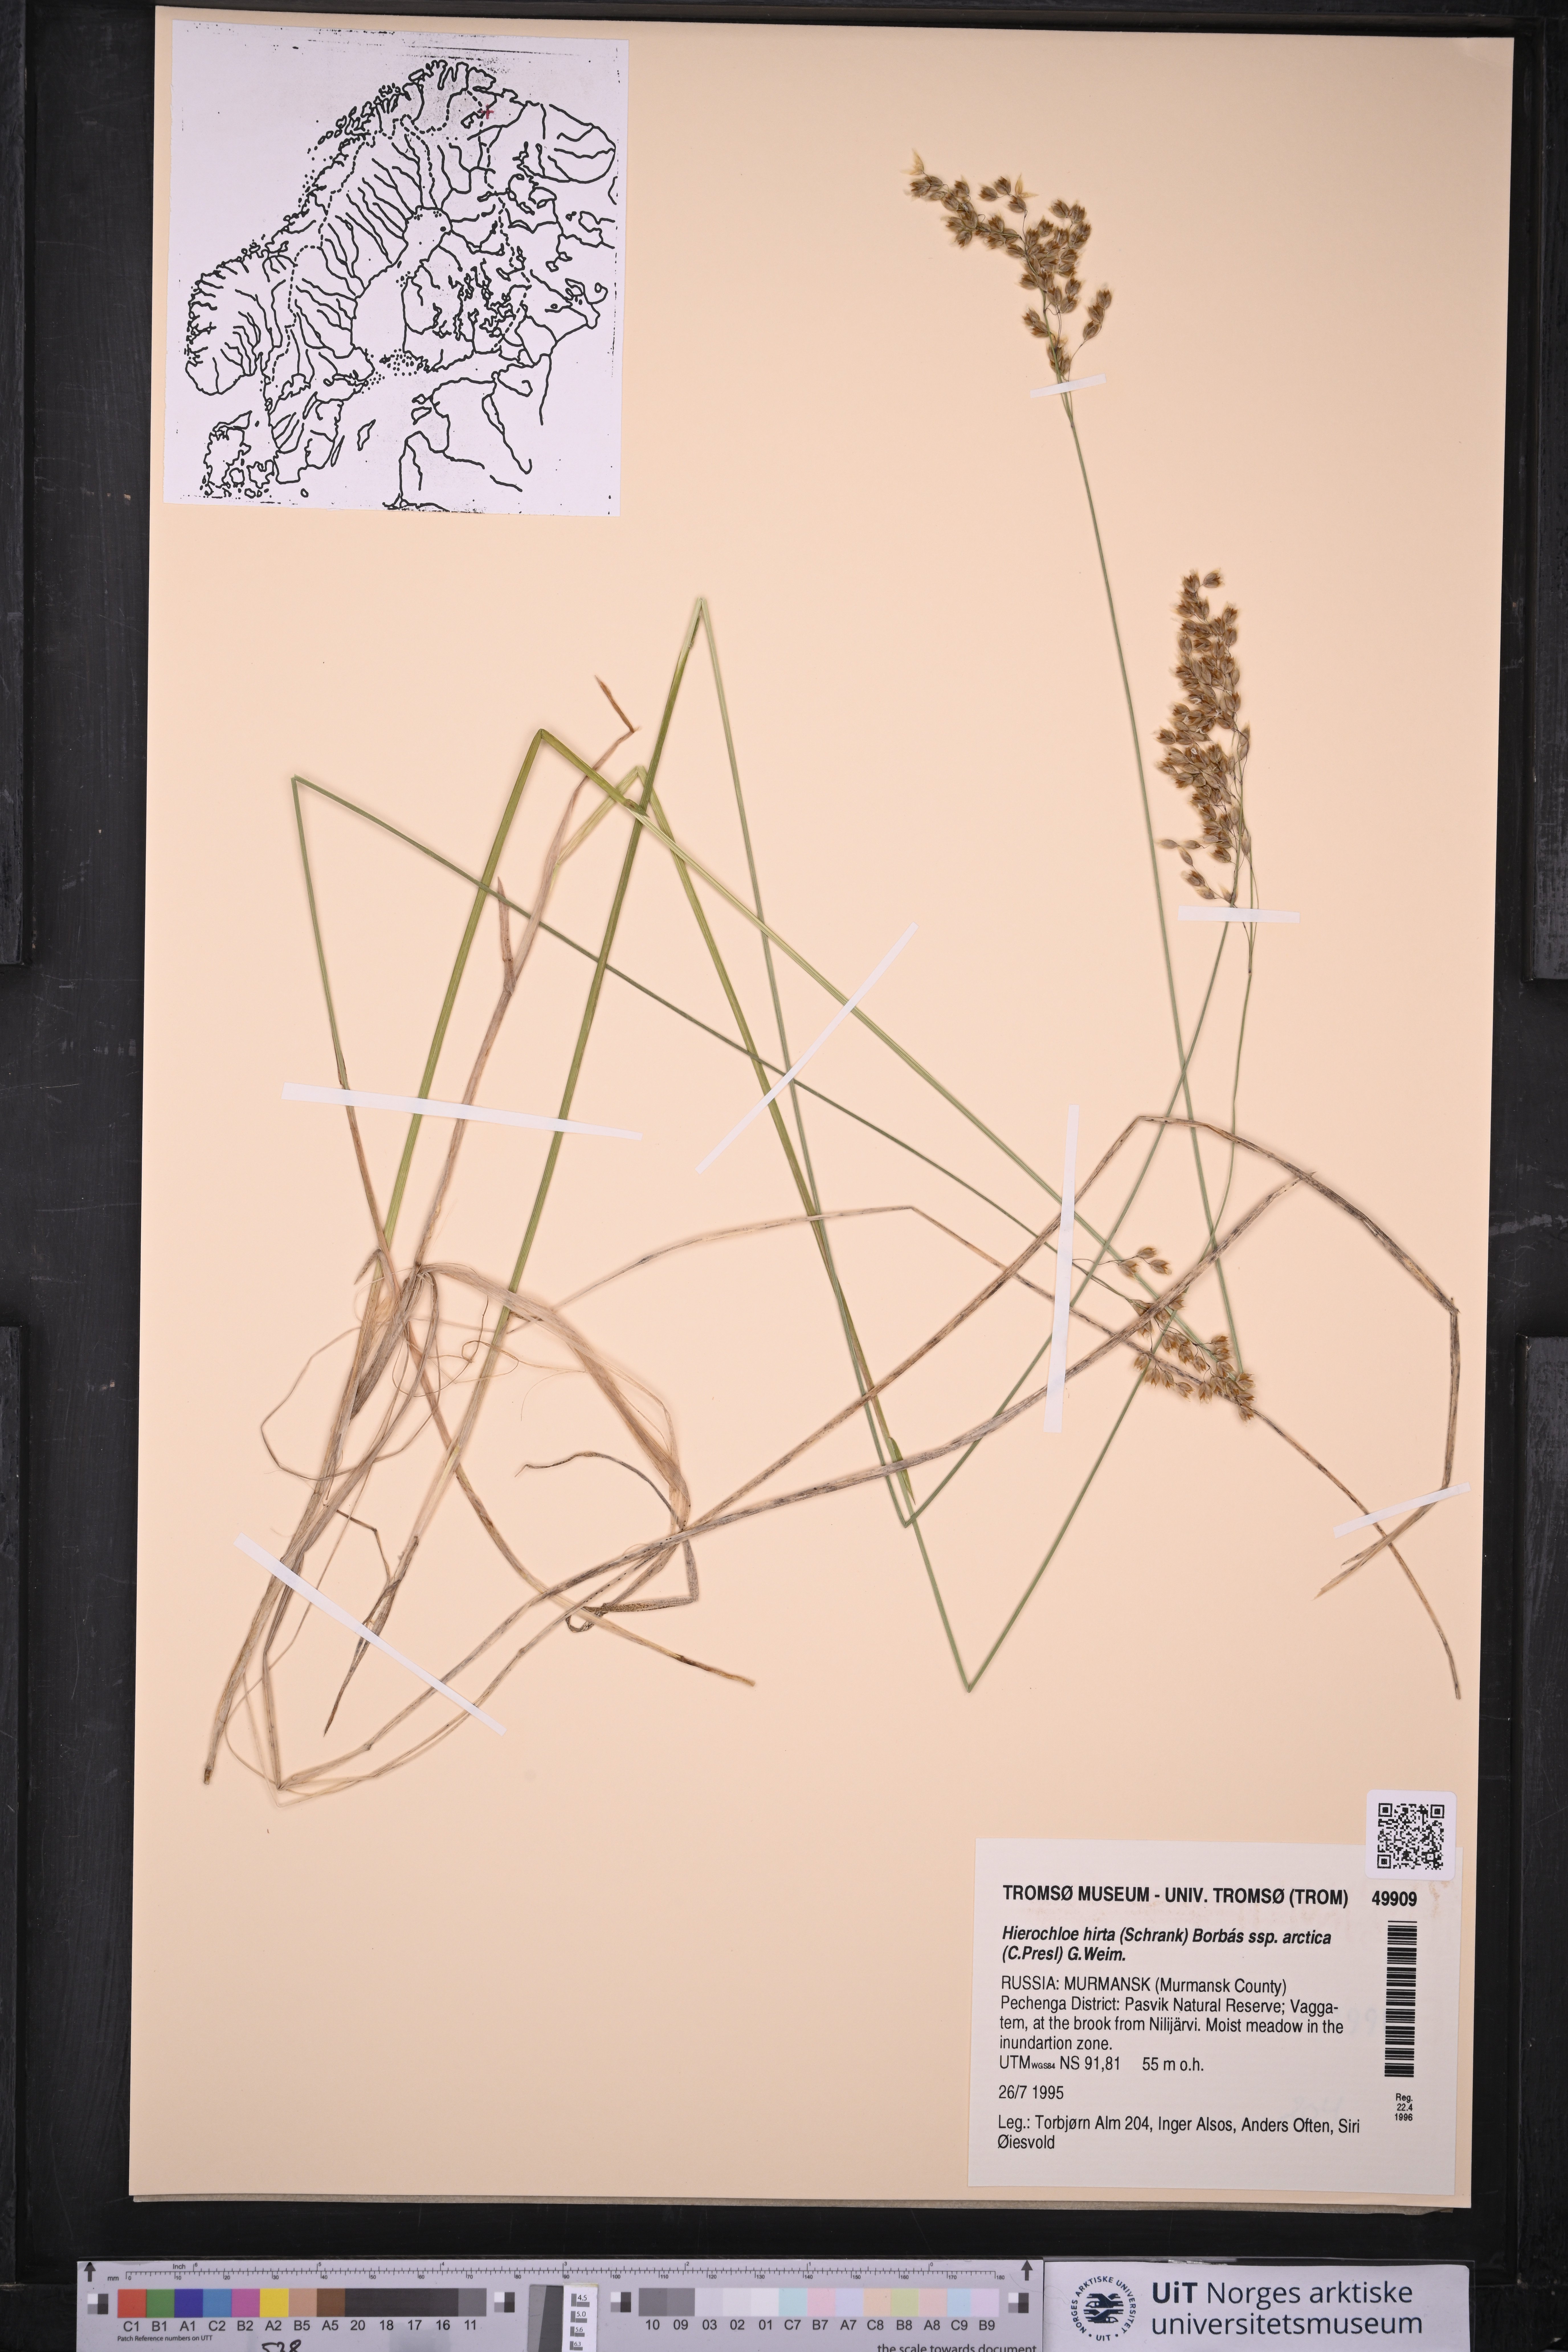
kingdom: Plantae
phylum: Tracheophyta
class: Liliopsida
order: Poales
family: Poaceae
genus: Anthoxanthum
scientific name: Anthoxanthum nitens
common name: Holy grass
